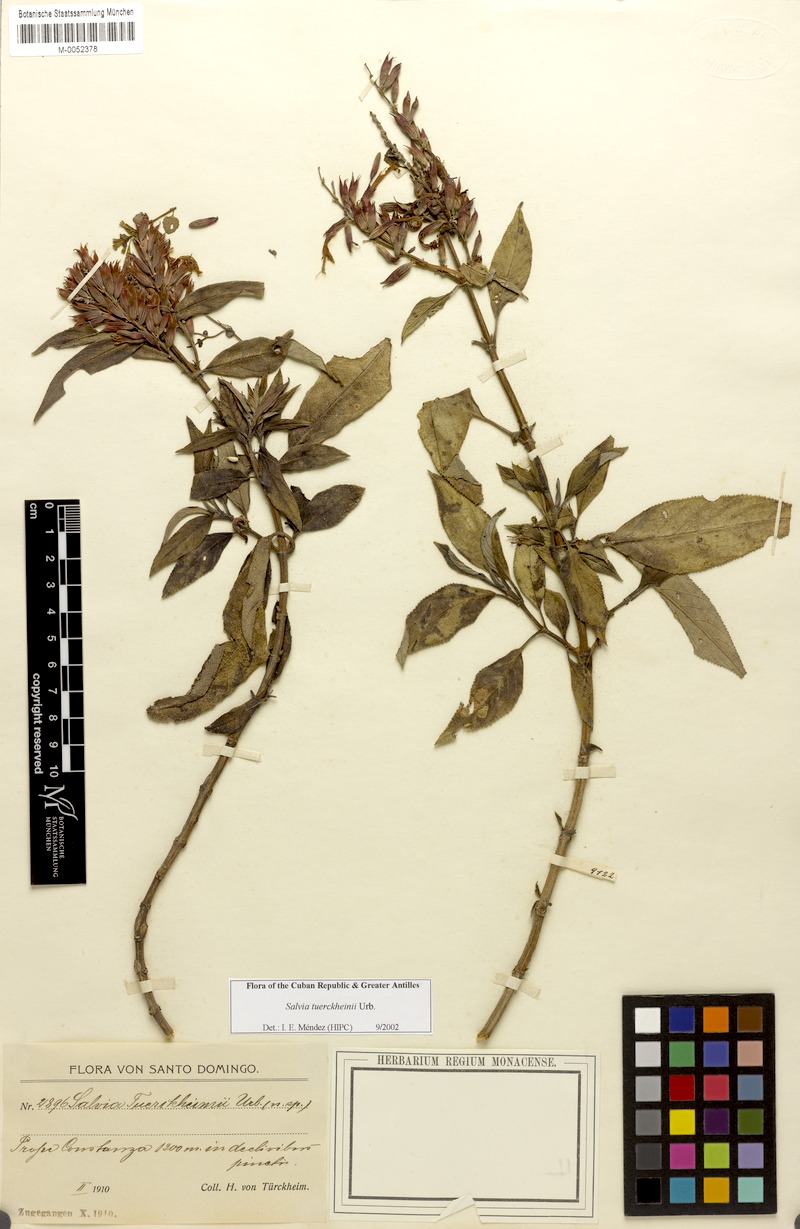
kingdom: Plantae
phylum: Tracheophyta
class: Magnoliopsida
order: Lamiales
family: Lamiaceae
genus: Salvia
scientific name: Salvia tuerckheimii
